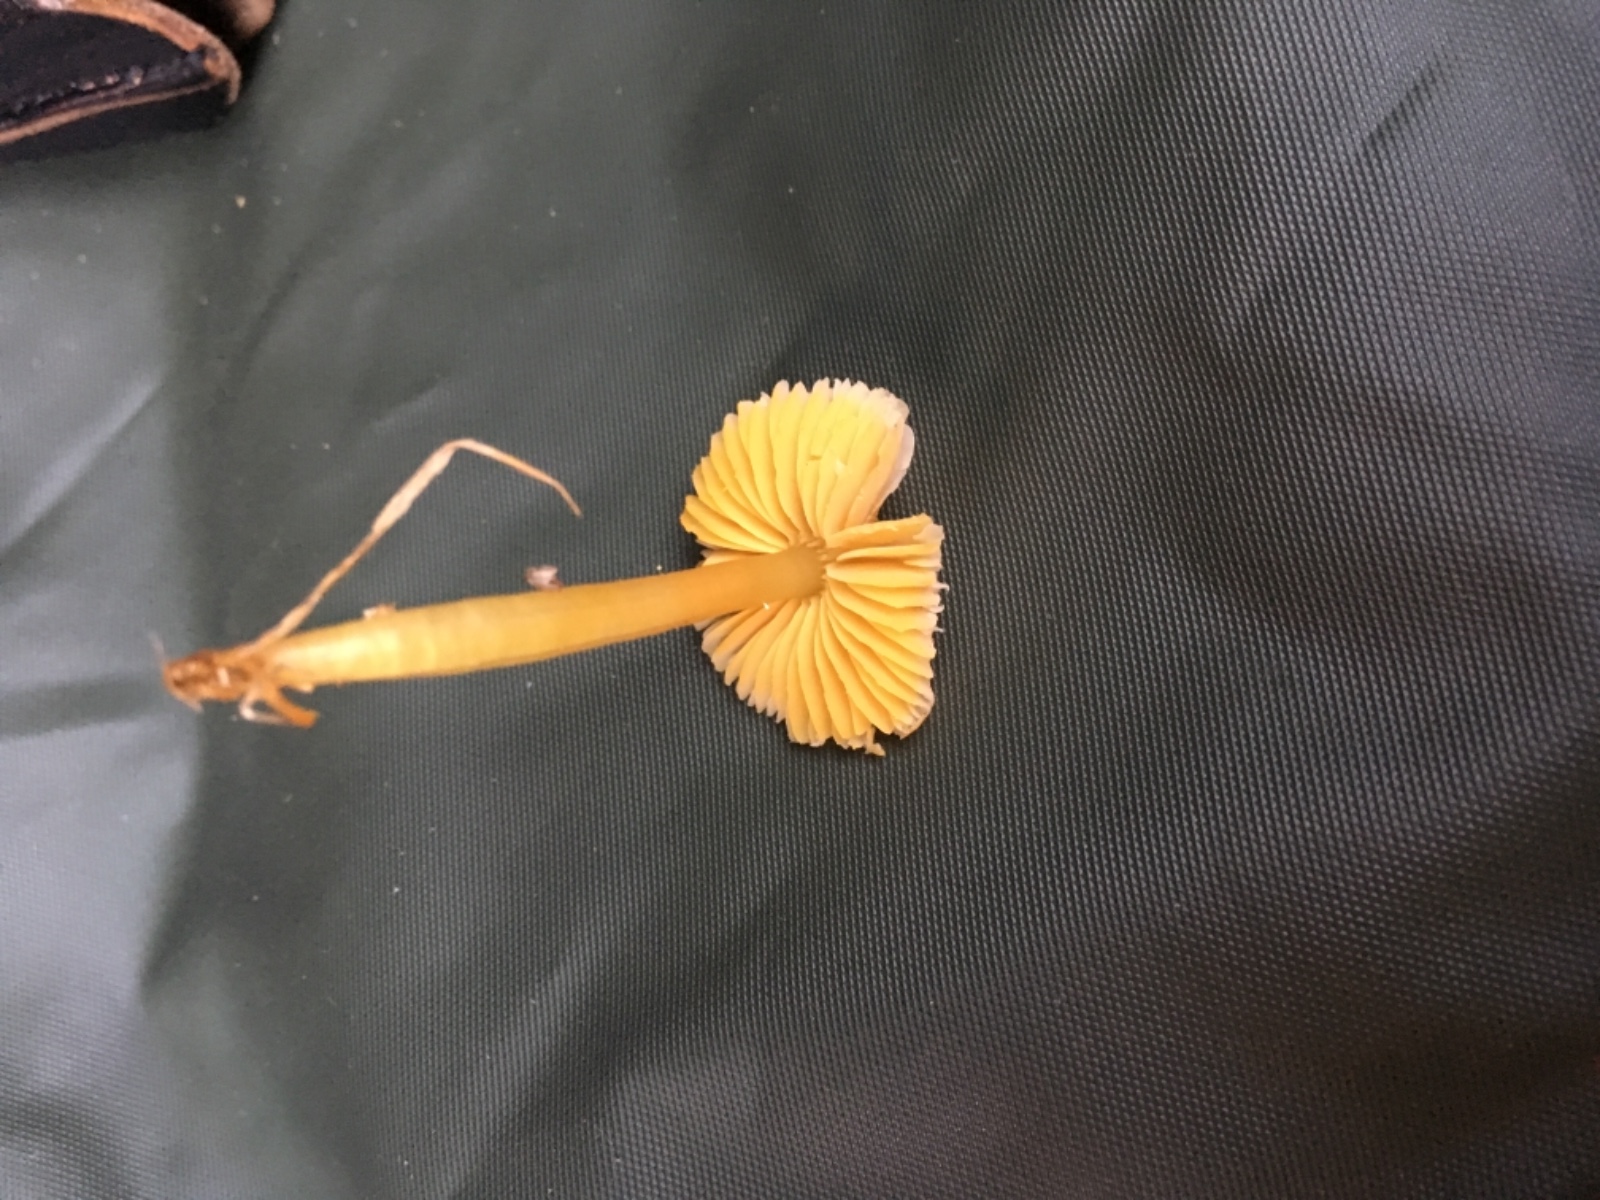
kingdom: Fungi
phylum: Basidiomycota
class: Agaricomycetes
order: Agaricales
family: Hygrophoraceae
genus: Hygrocybe
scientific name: Hygrocybe
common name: vokshat
